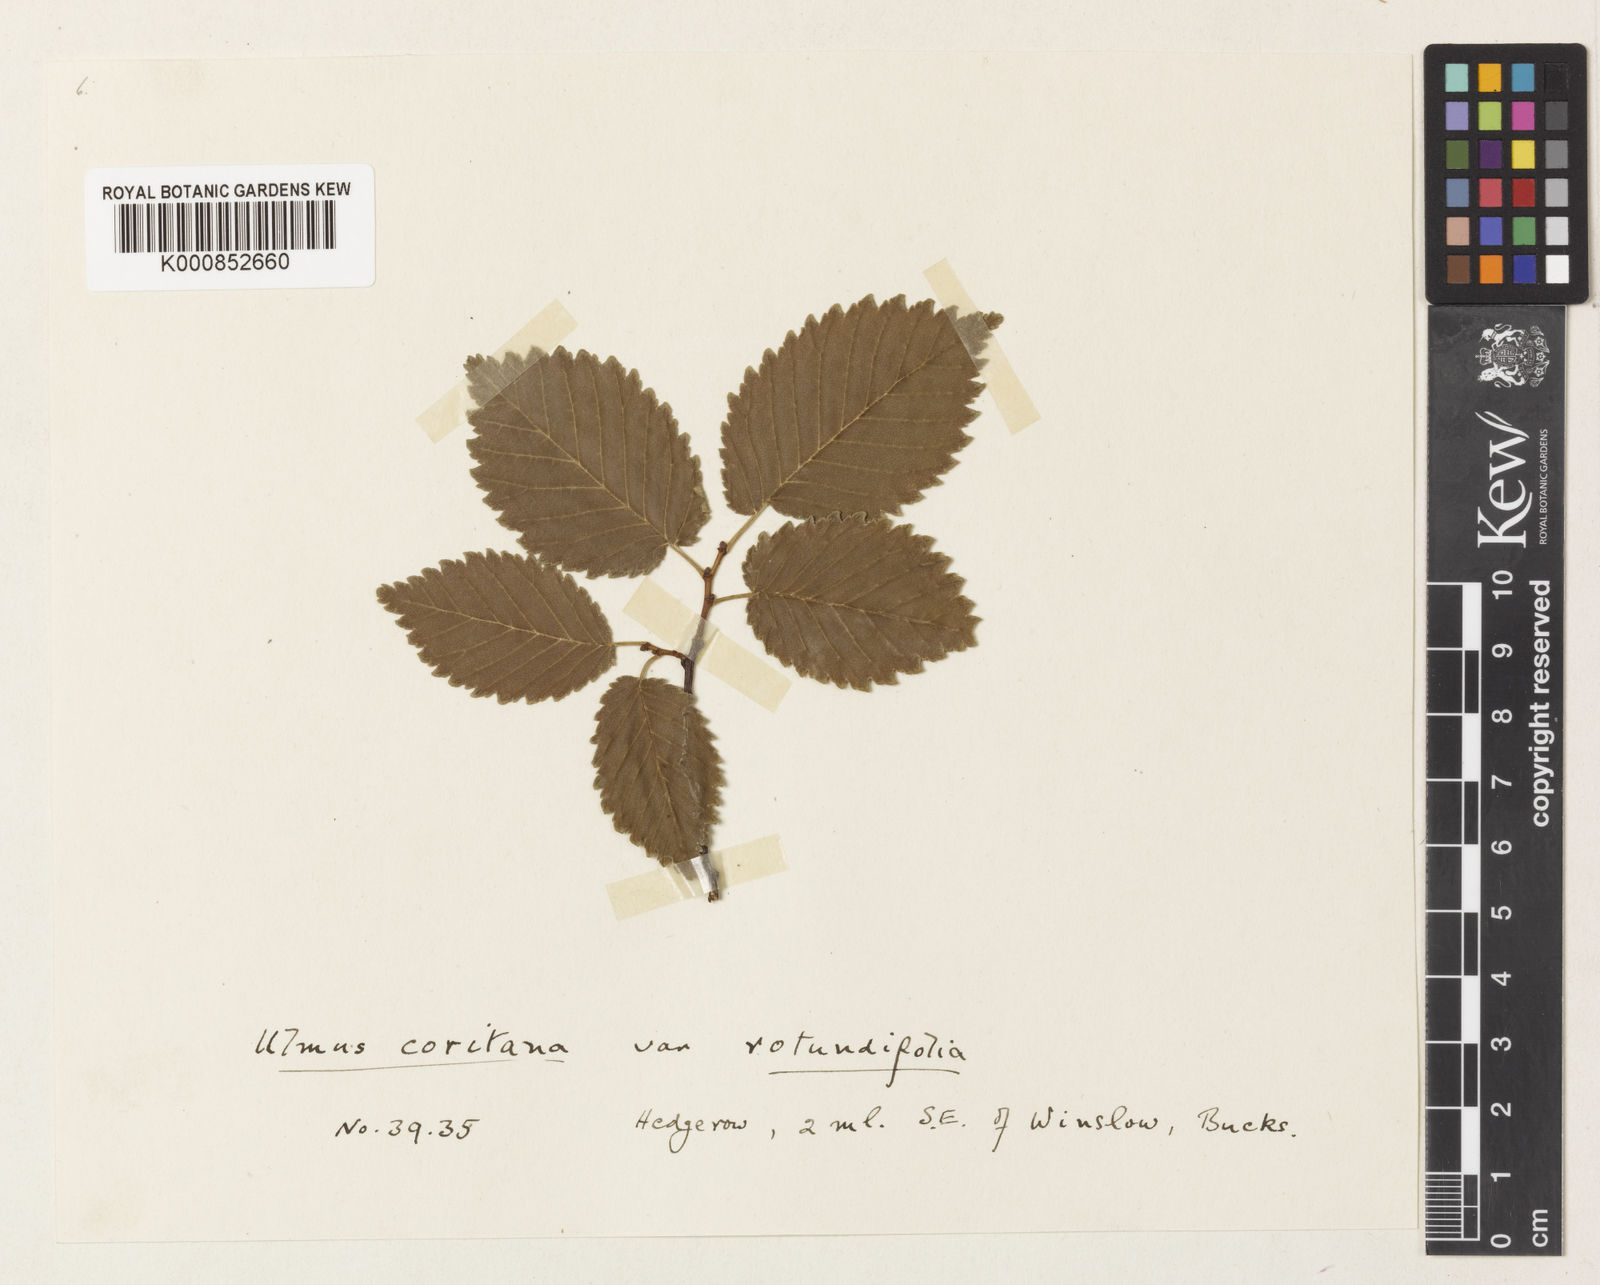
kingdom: Plantae
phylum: Tracheophyta
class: Magnoliopsida
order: Rosales
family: Ulmaceae
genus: Ulmus
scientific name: Ulmus minor
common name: Small-leaved elm
